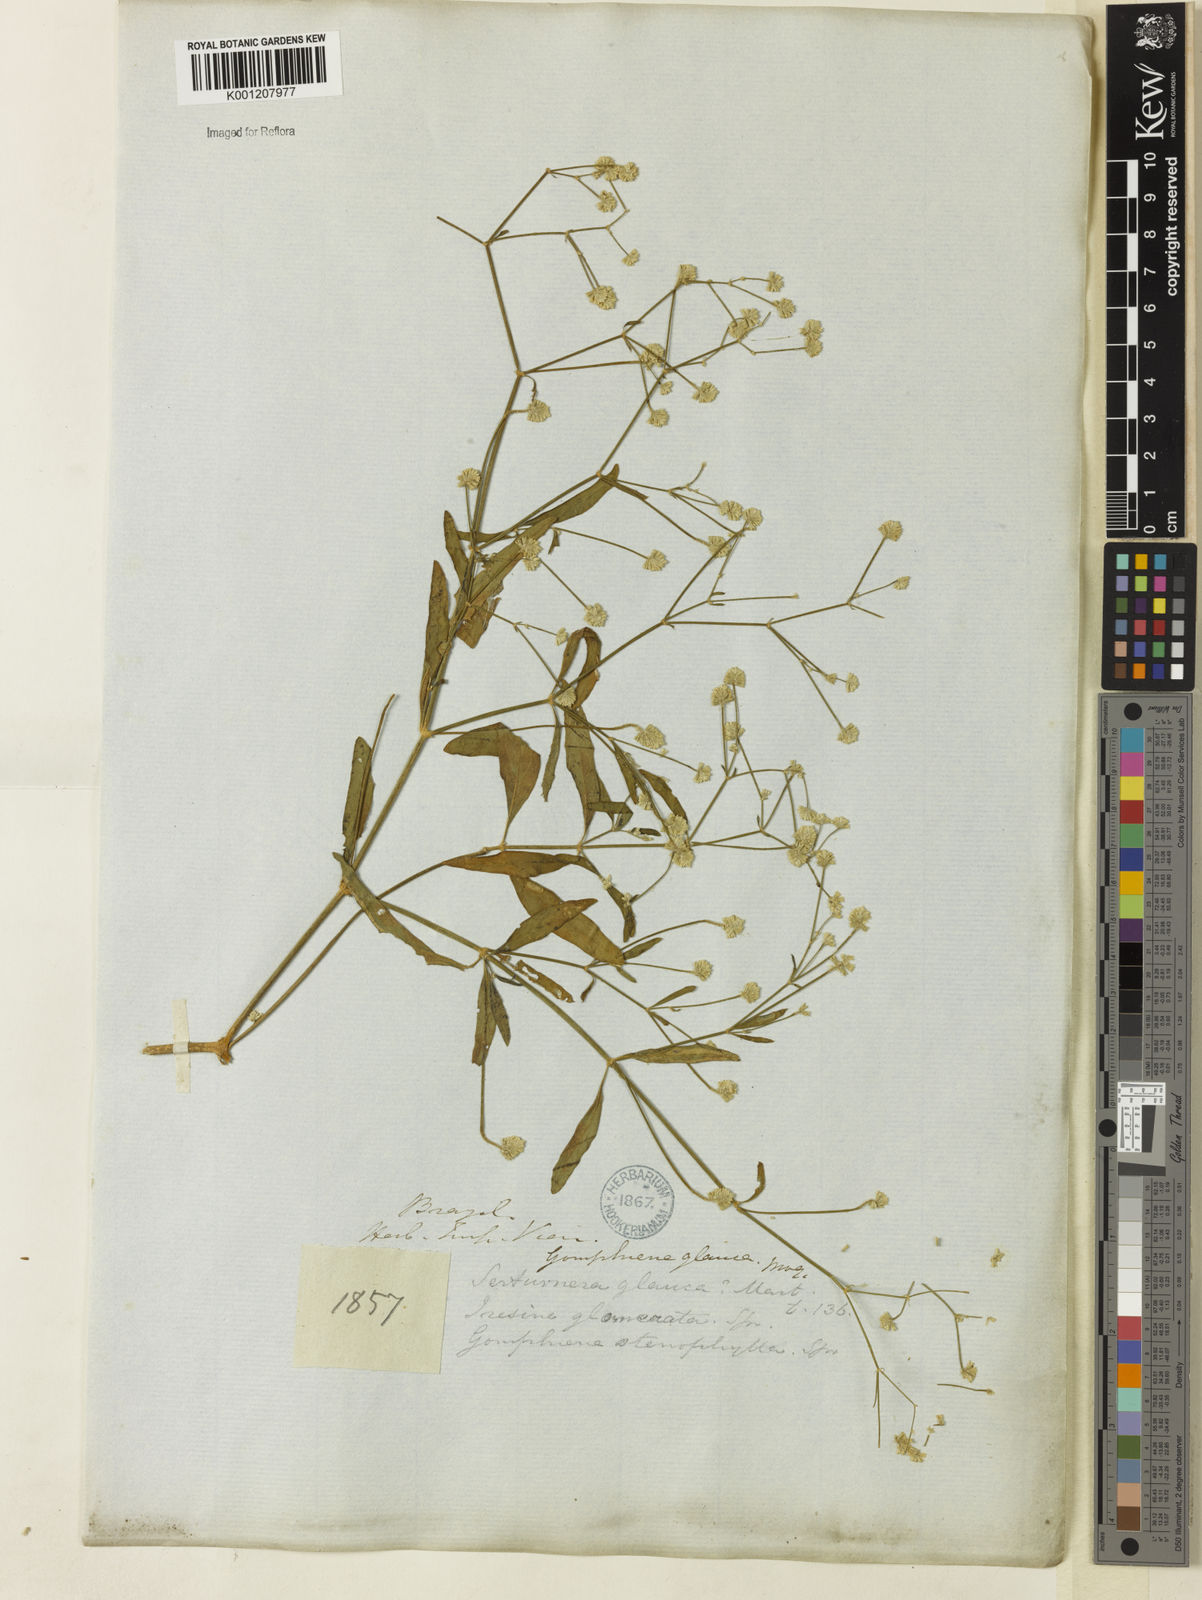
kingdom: Plantae
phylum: Tracheophyta
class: Magnoliopsida
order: Caryophyllales
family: Amaranthaceae
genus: Pfaffia
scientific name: Pfaffia
